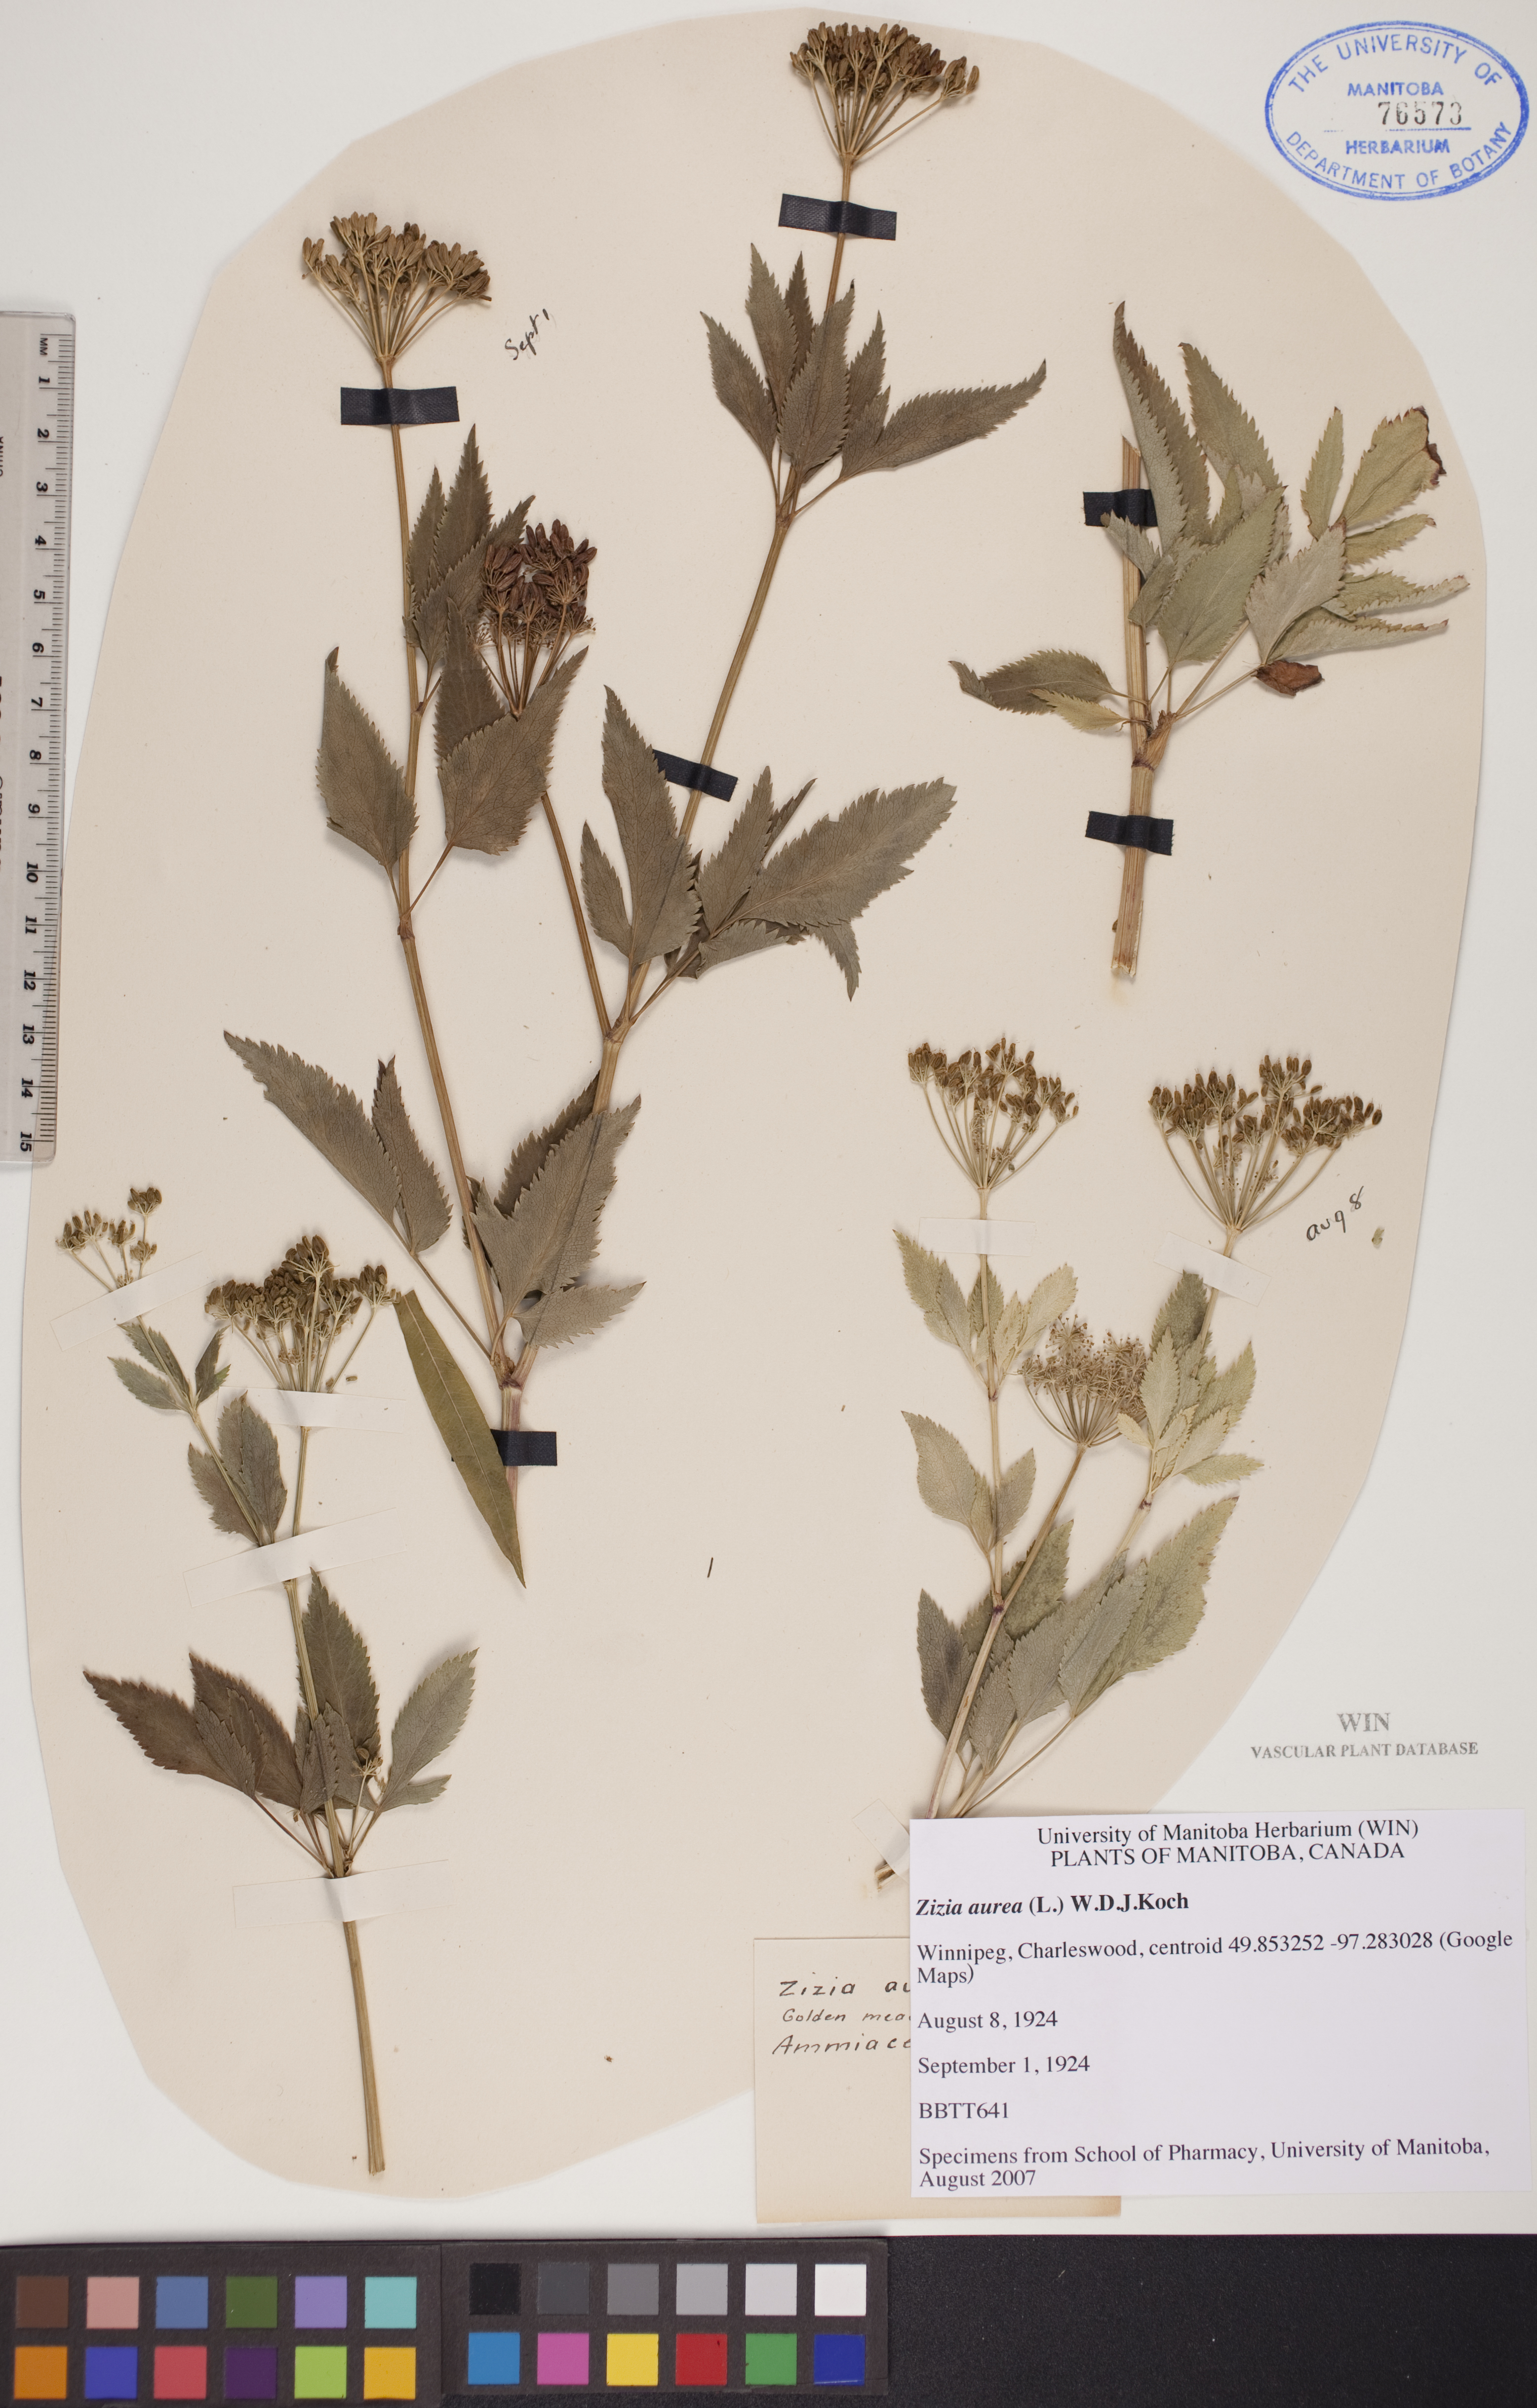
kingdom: Plantae
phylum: Tracheophyta
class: Magnoliopsida
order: Apiales
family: Apiaceae
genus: Zizia
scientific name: Zizia aurea
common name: Golden alexanders
